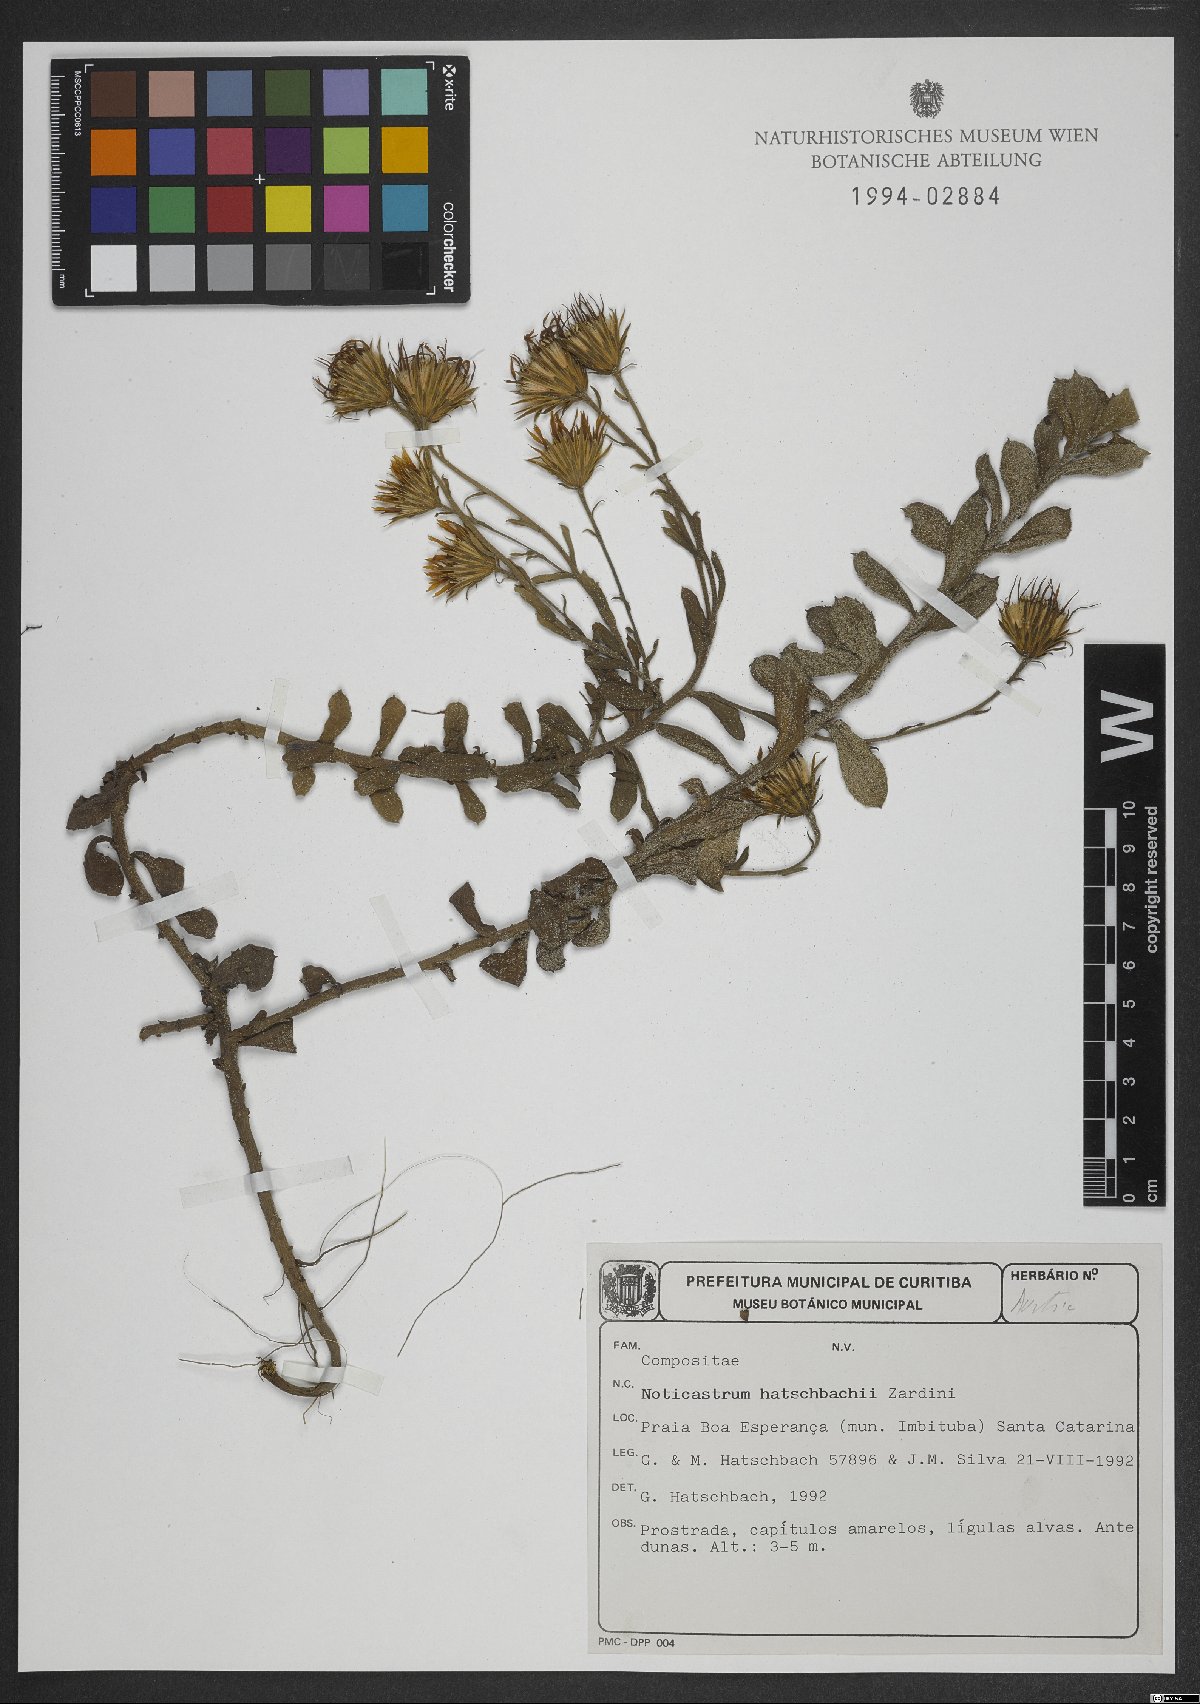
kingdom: Plantae
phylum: Tracheophyta
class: Magnoliopsida
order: Asterales
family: Asteraceae
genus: Noticastrum
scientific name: Noticastrum hatschbachii
